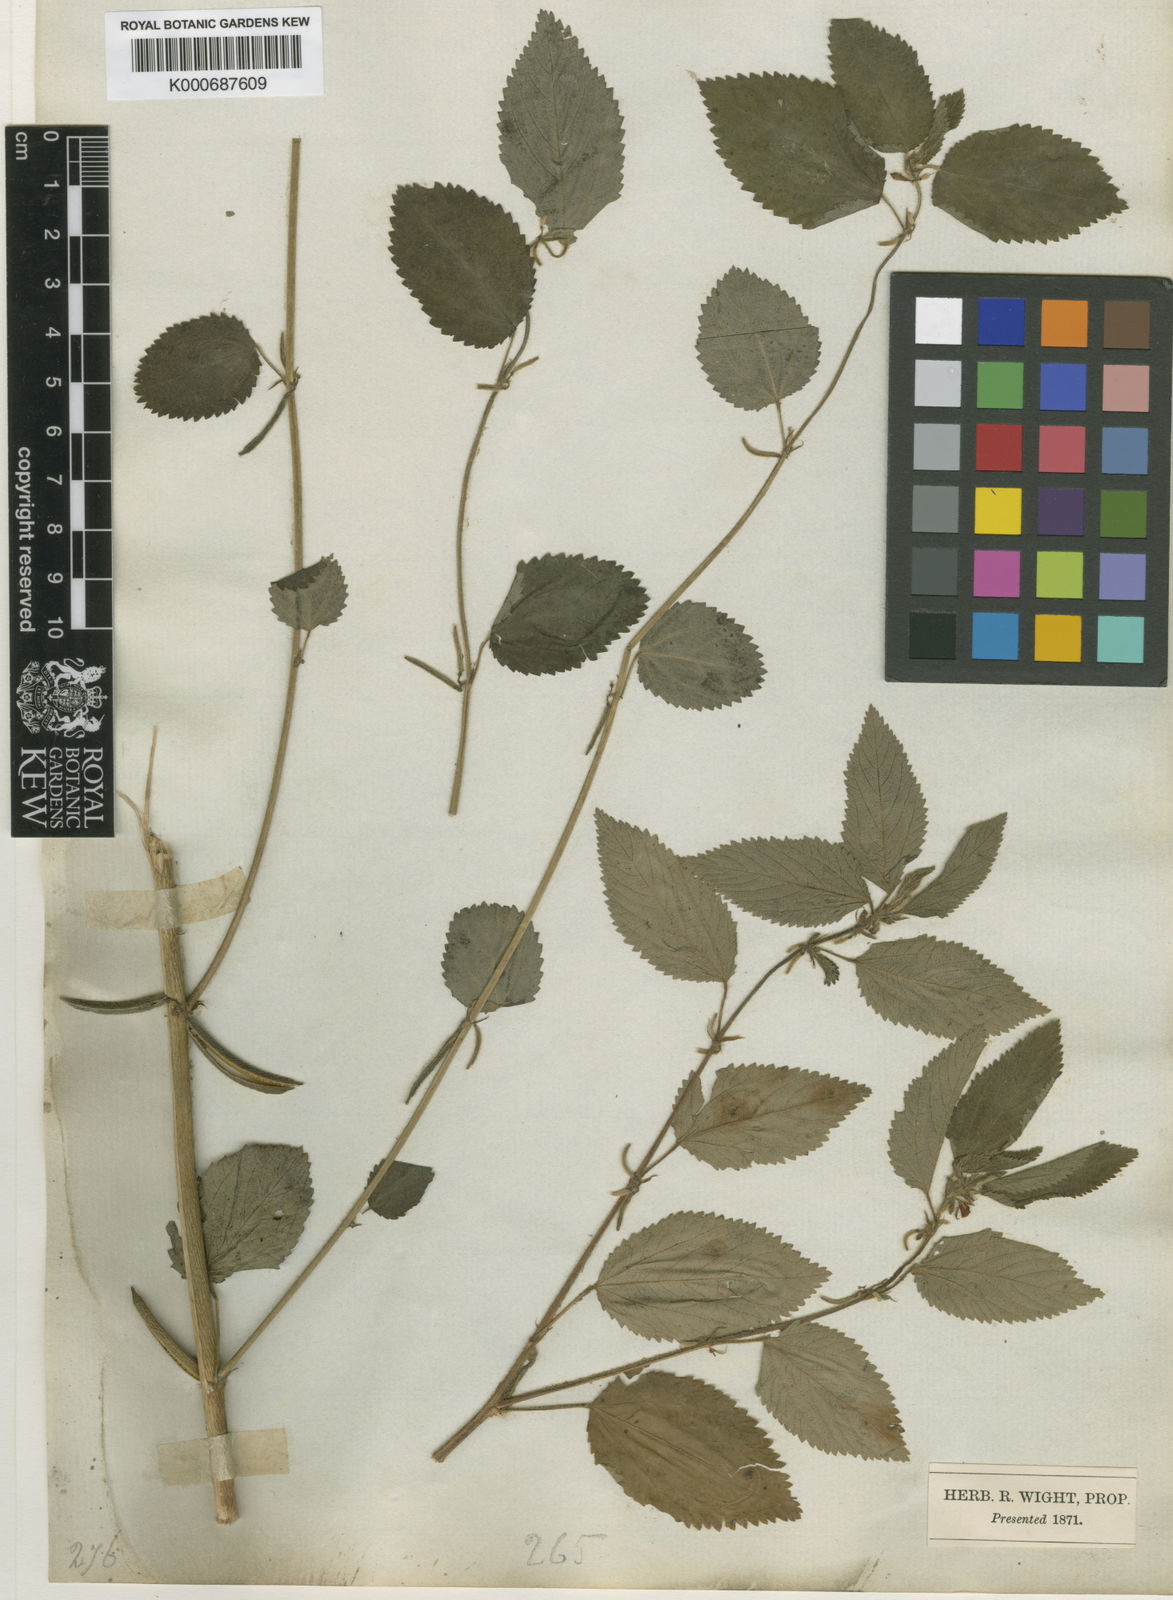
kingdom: Plantae
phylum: Tracheophyta
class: Magnoliopsida
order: Malvales
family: Malvaceae
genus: Corchorus
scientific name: Corchorus urticifolius
